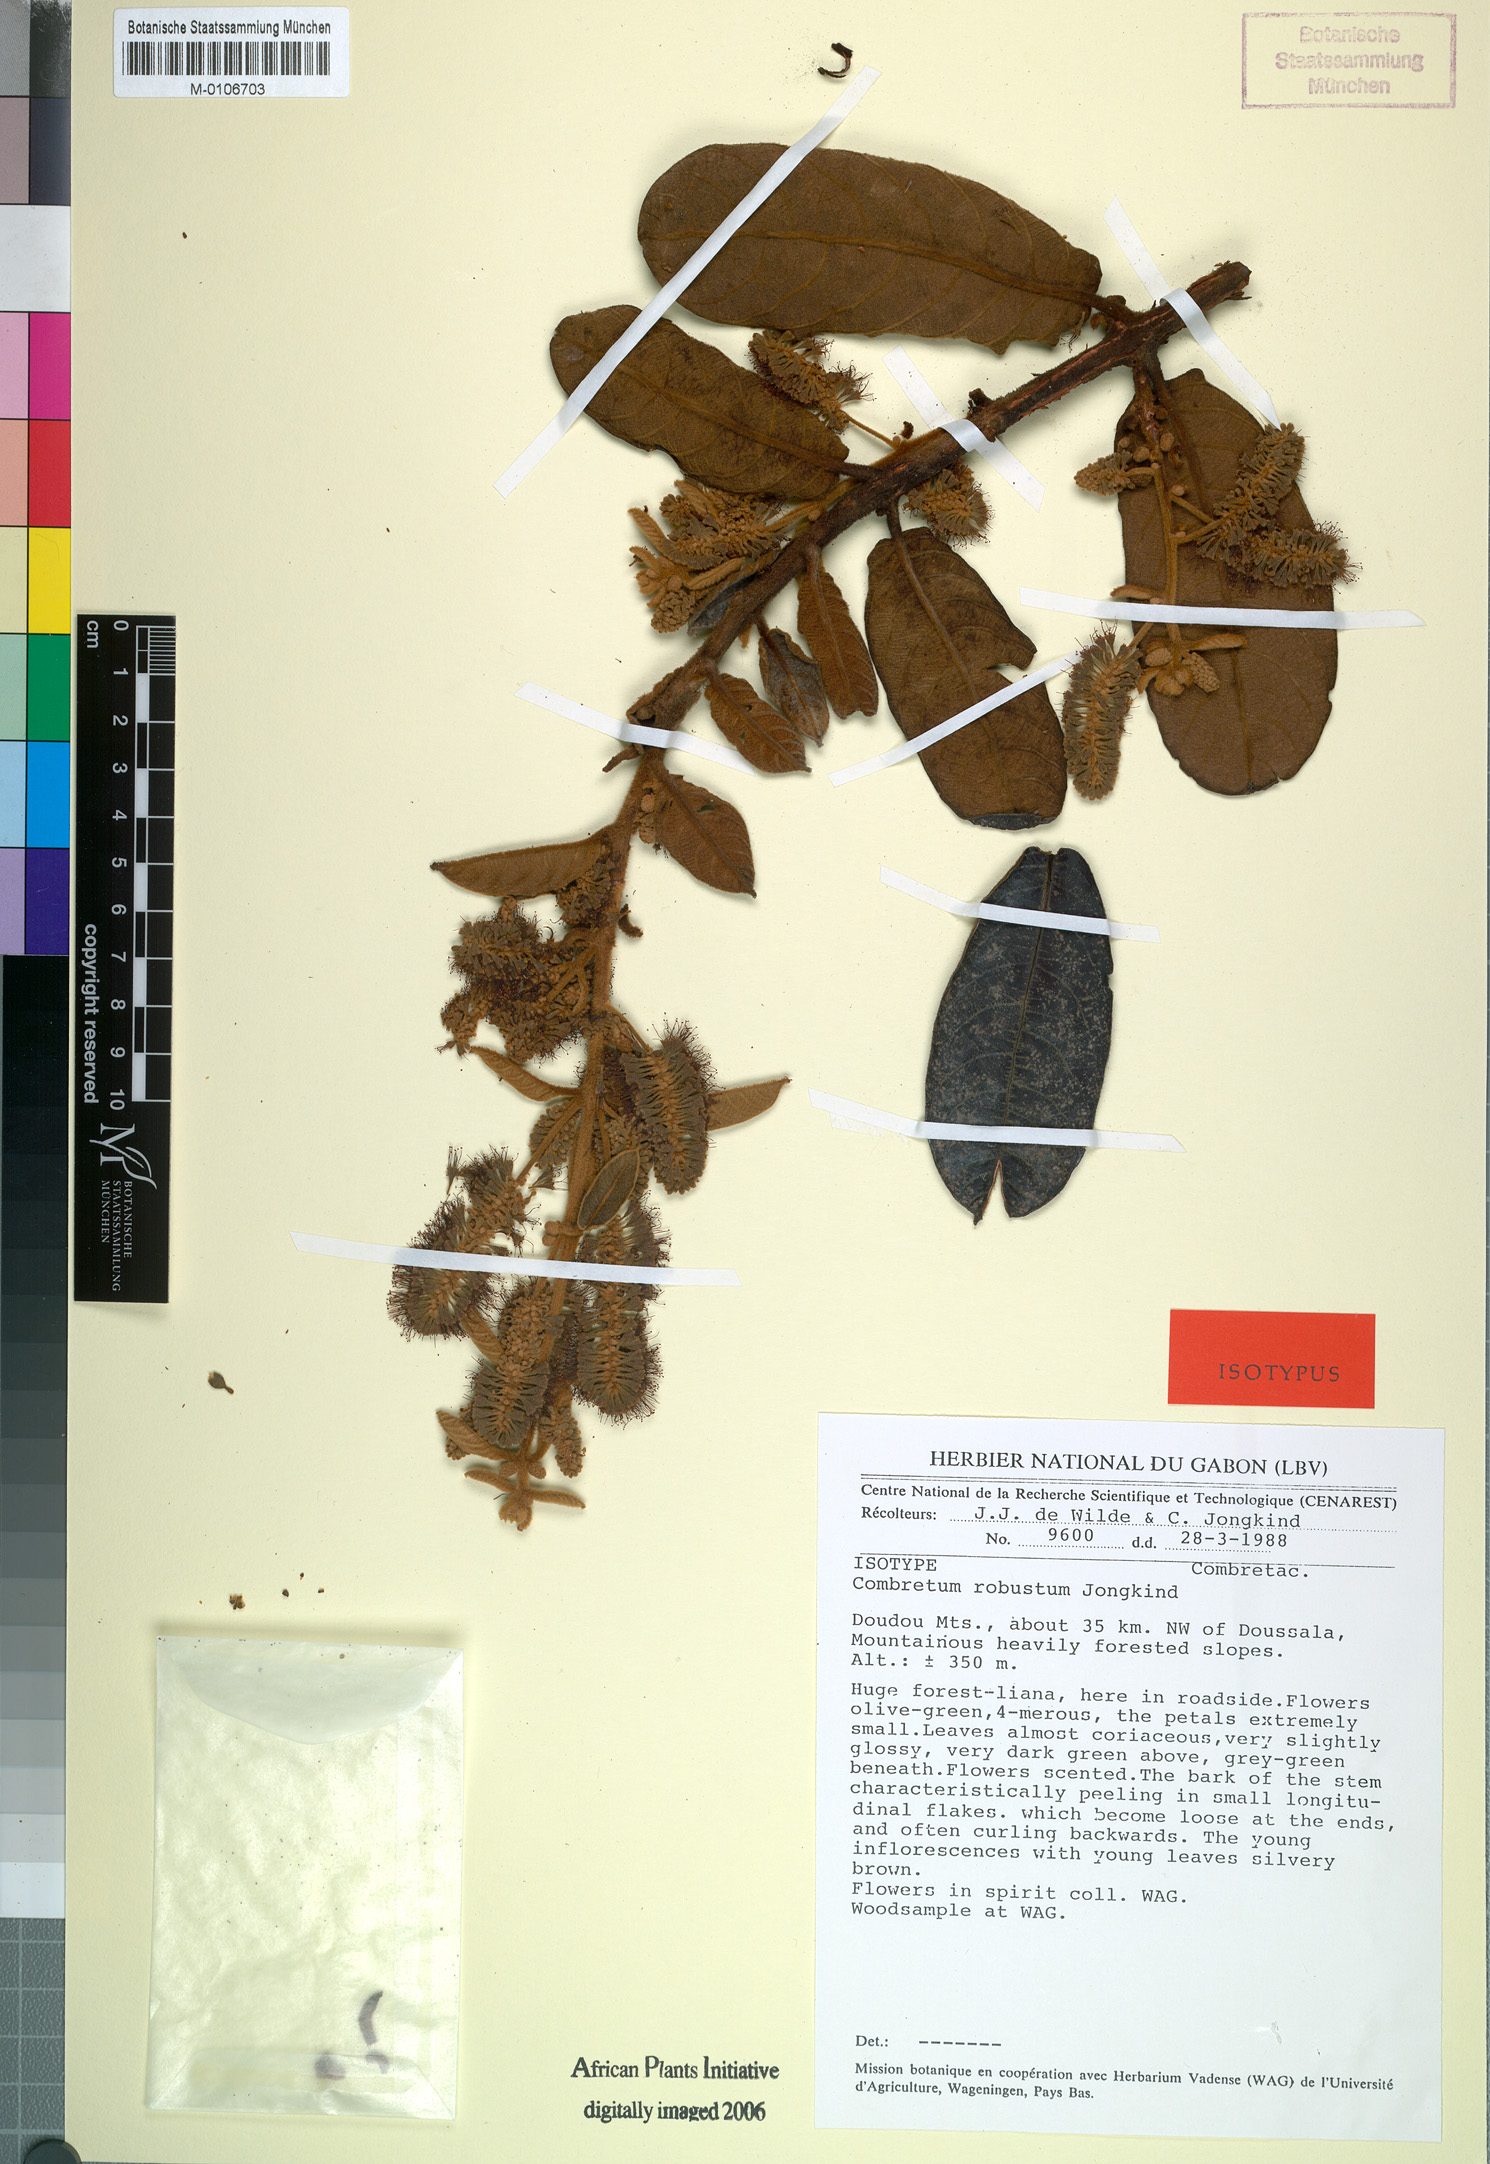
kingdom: Plantae
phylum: Tracheophyta
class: Magnoliopsida
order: Myrtales
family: Combretaceae
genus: Combretum
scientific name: Combretum robustum
